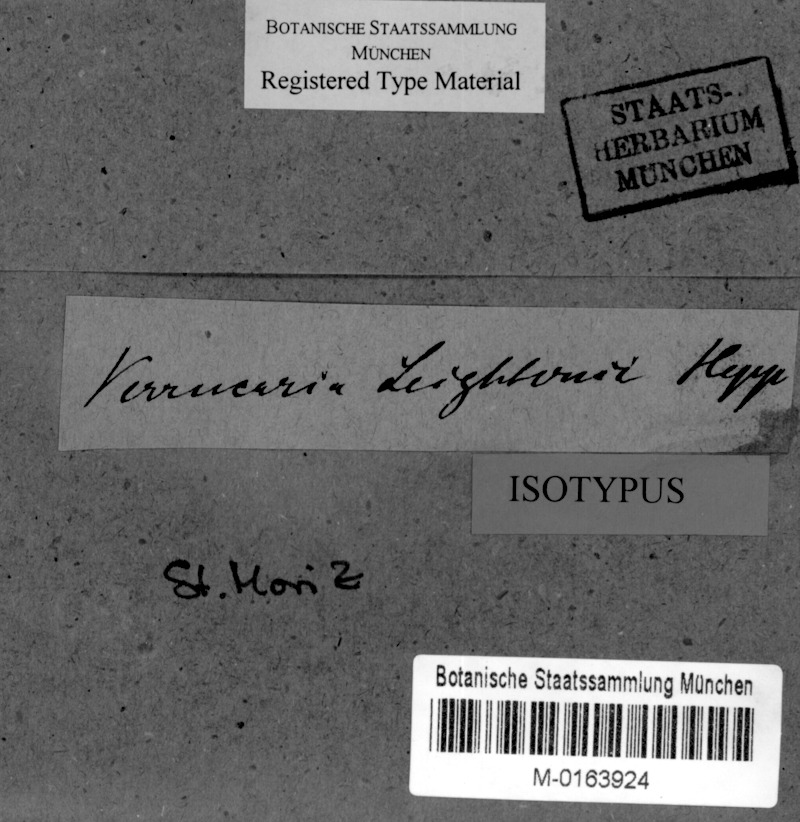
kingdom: Fungi
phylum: Ascomycota
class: Eurotiomycetes
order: Verrucariales
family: Verrucariaceae
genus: Verrucaria
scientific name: Verrucaria margacea
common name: Inundated speck lichen
